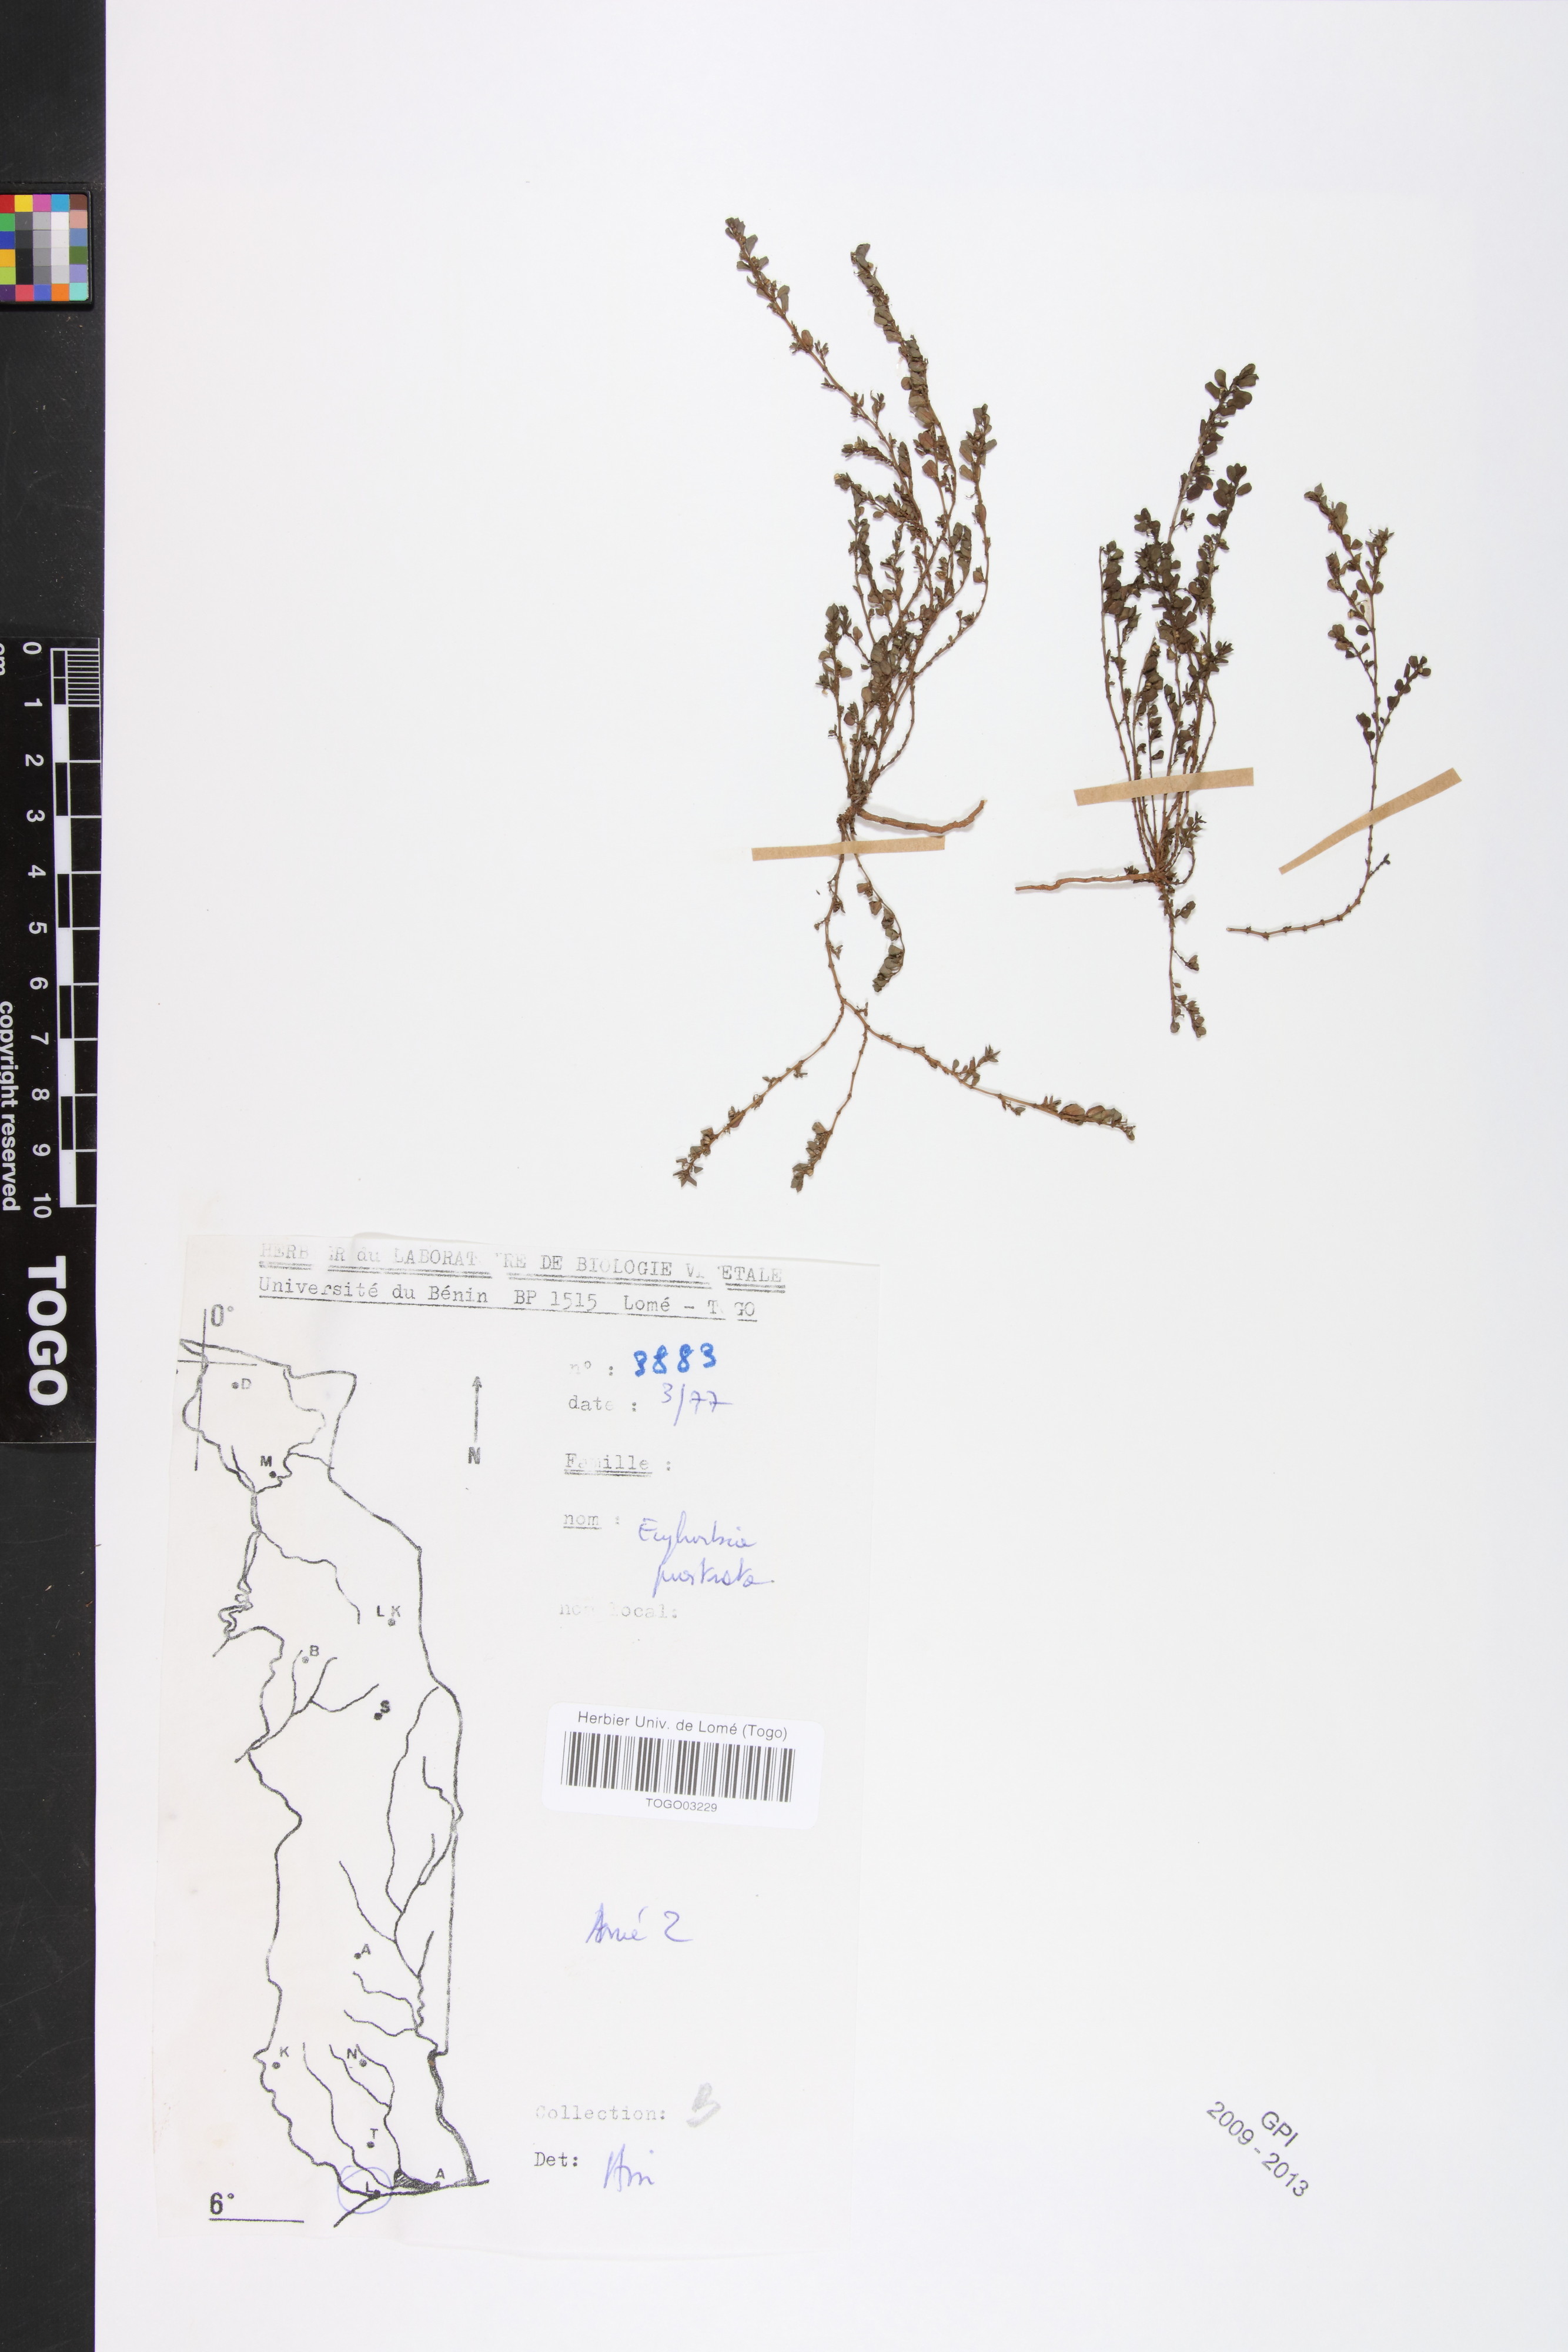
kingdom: Plantae
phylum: Tracheophyta
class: Magnoliopsida
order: Malpighiales
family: Euphorbiaceae
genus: Euphorbia
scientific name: Euphorbia prostrata
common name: Prostrate sandmat
